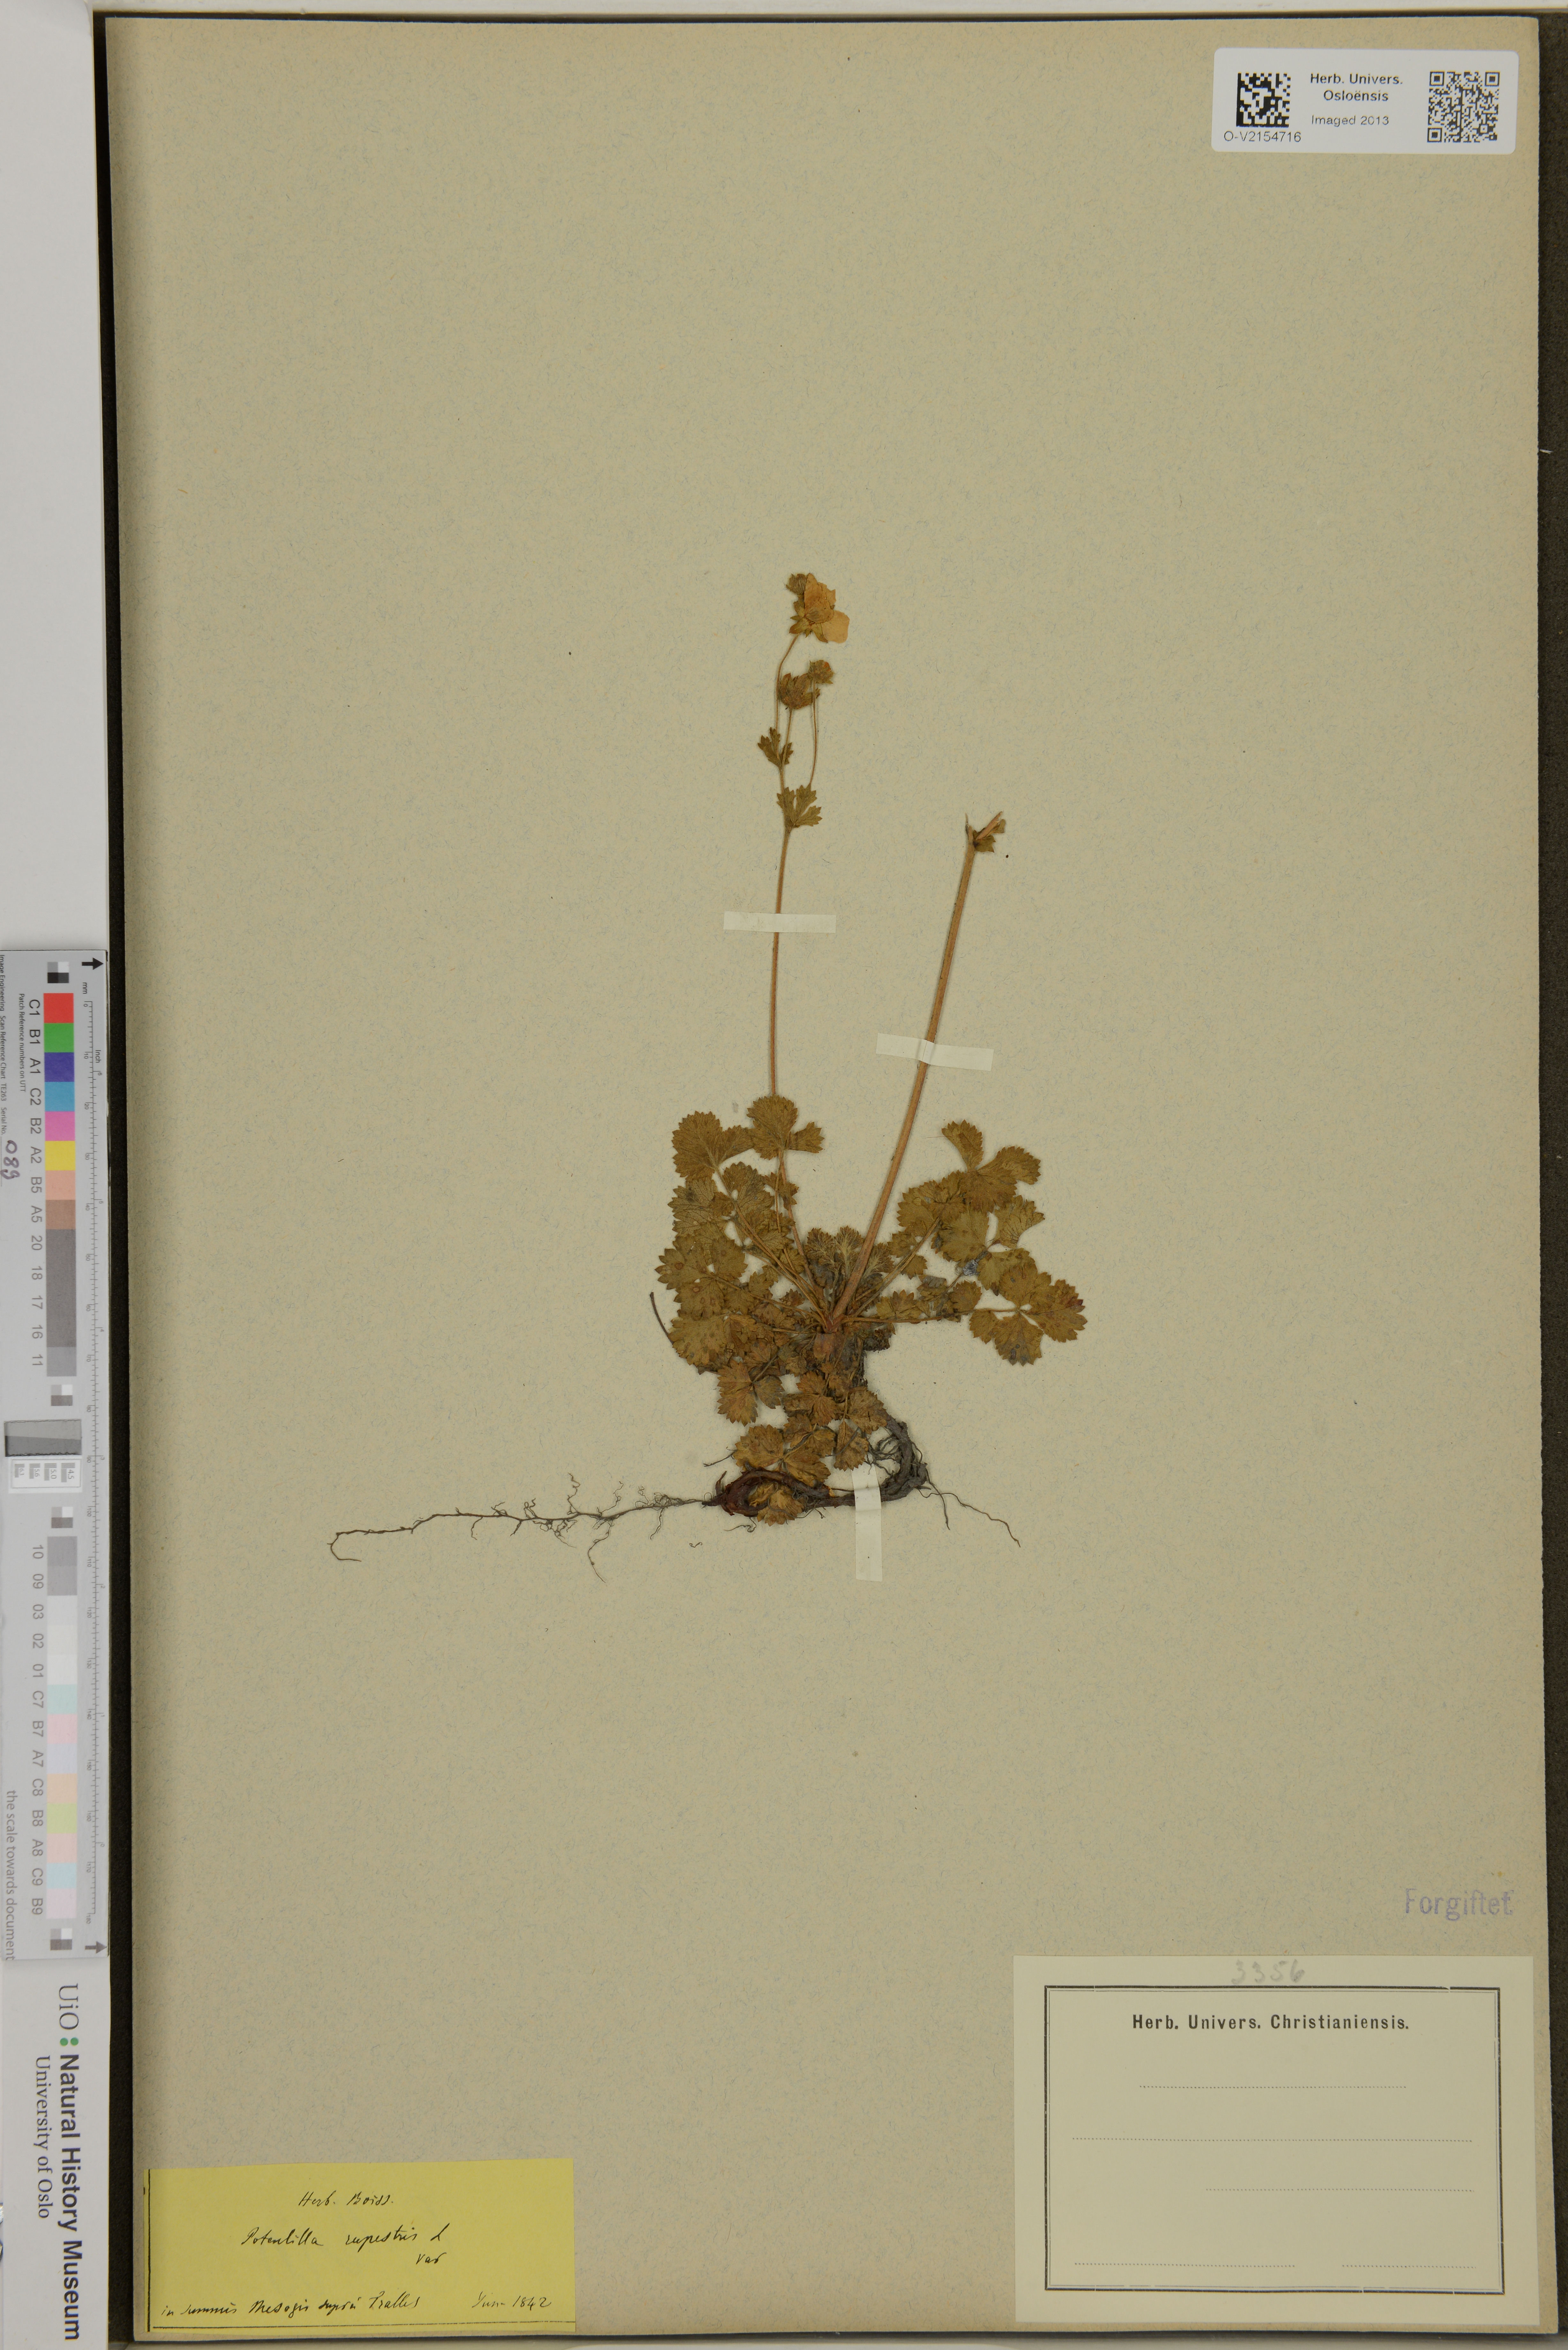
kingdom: Plantae
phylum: Tracheophyta
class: Magnoliopsida
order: Rosales
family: Rosaceae
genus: Drymocallis
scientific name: Drymocallis rupestris
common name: Rock cinquefoil
